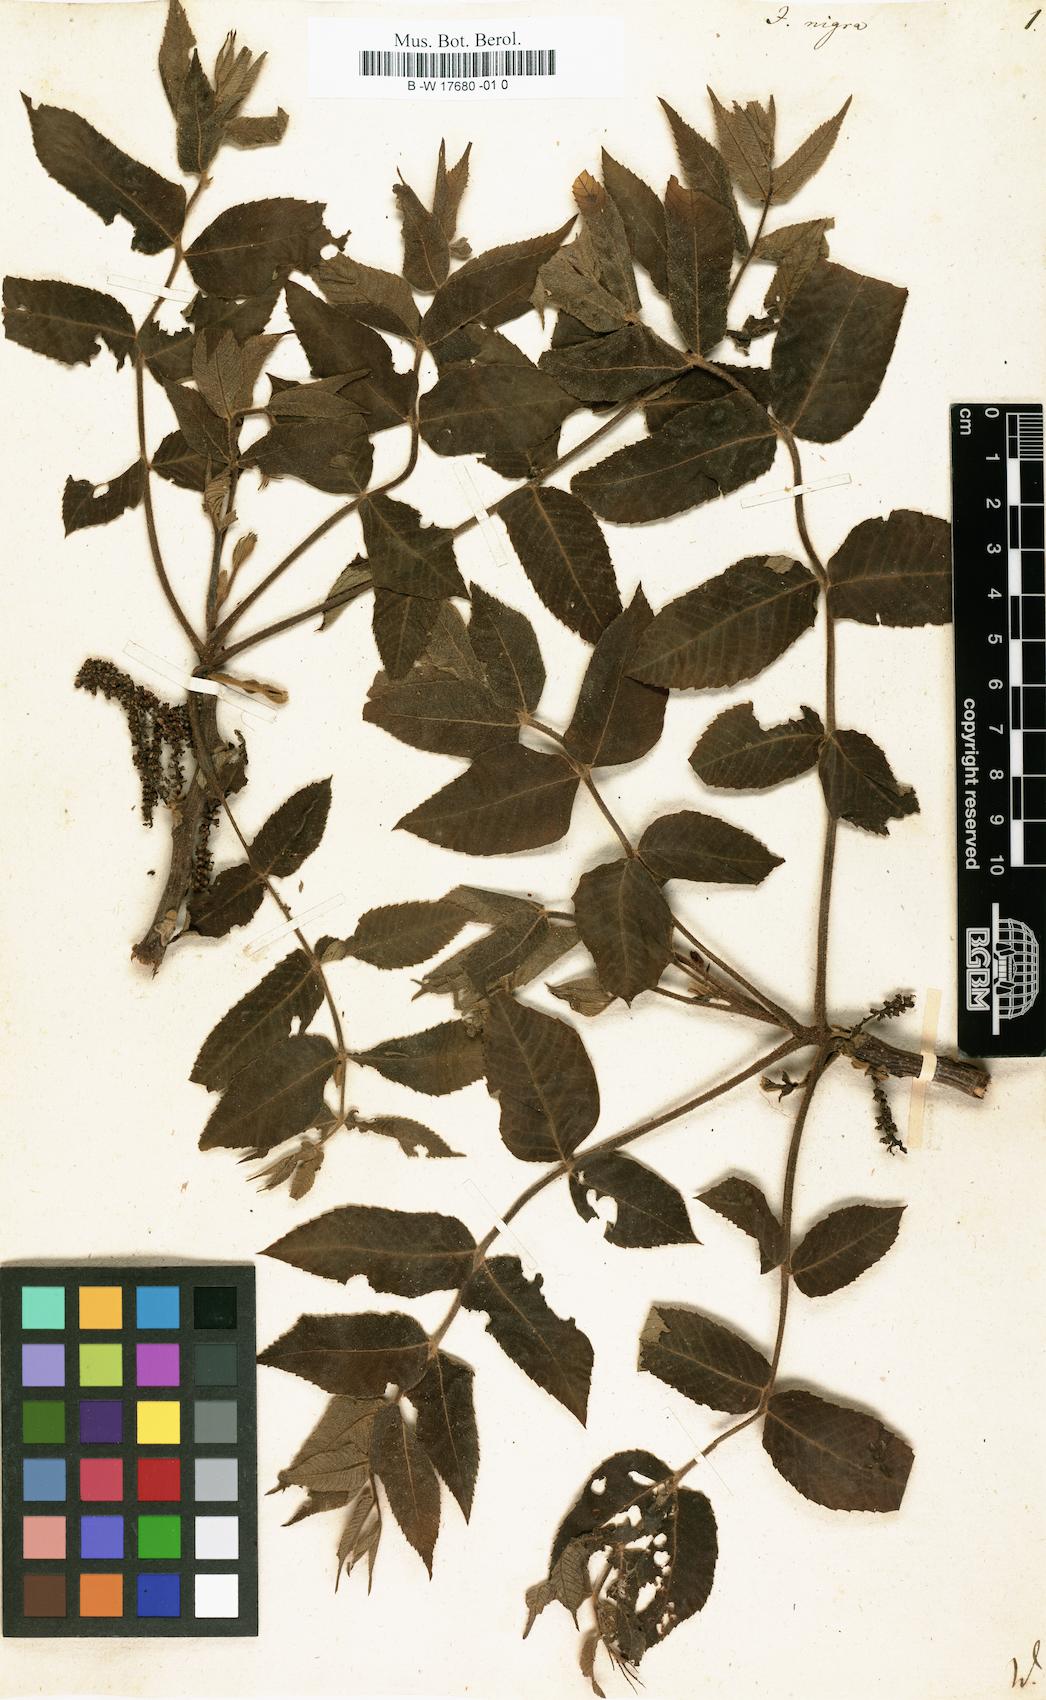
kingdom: Plantae
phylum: Tracheophyta
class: Magnoliopsida
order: Fagales
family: Juglandaceae
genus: Juglans
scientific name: Juglans nigra
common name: Black walnut
